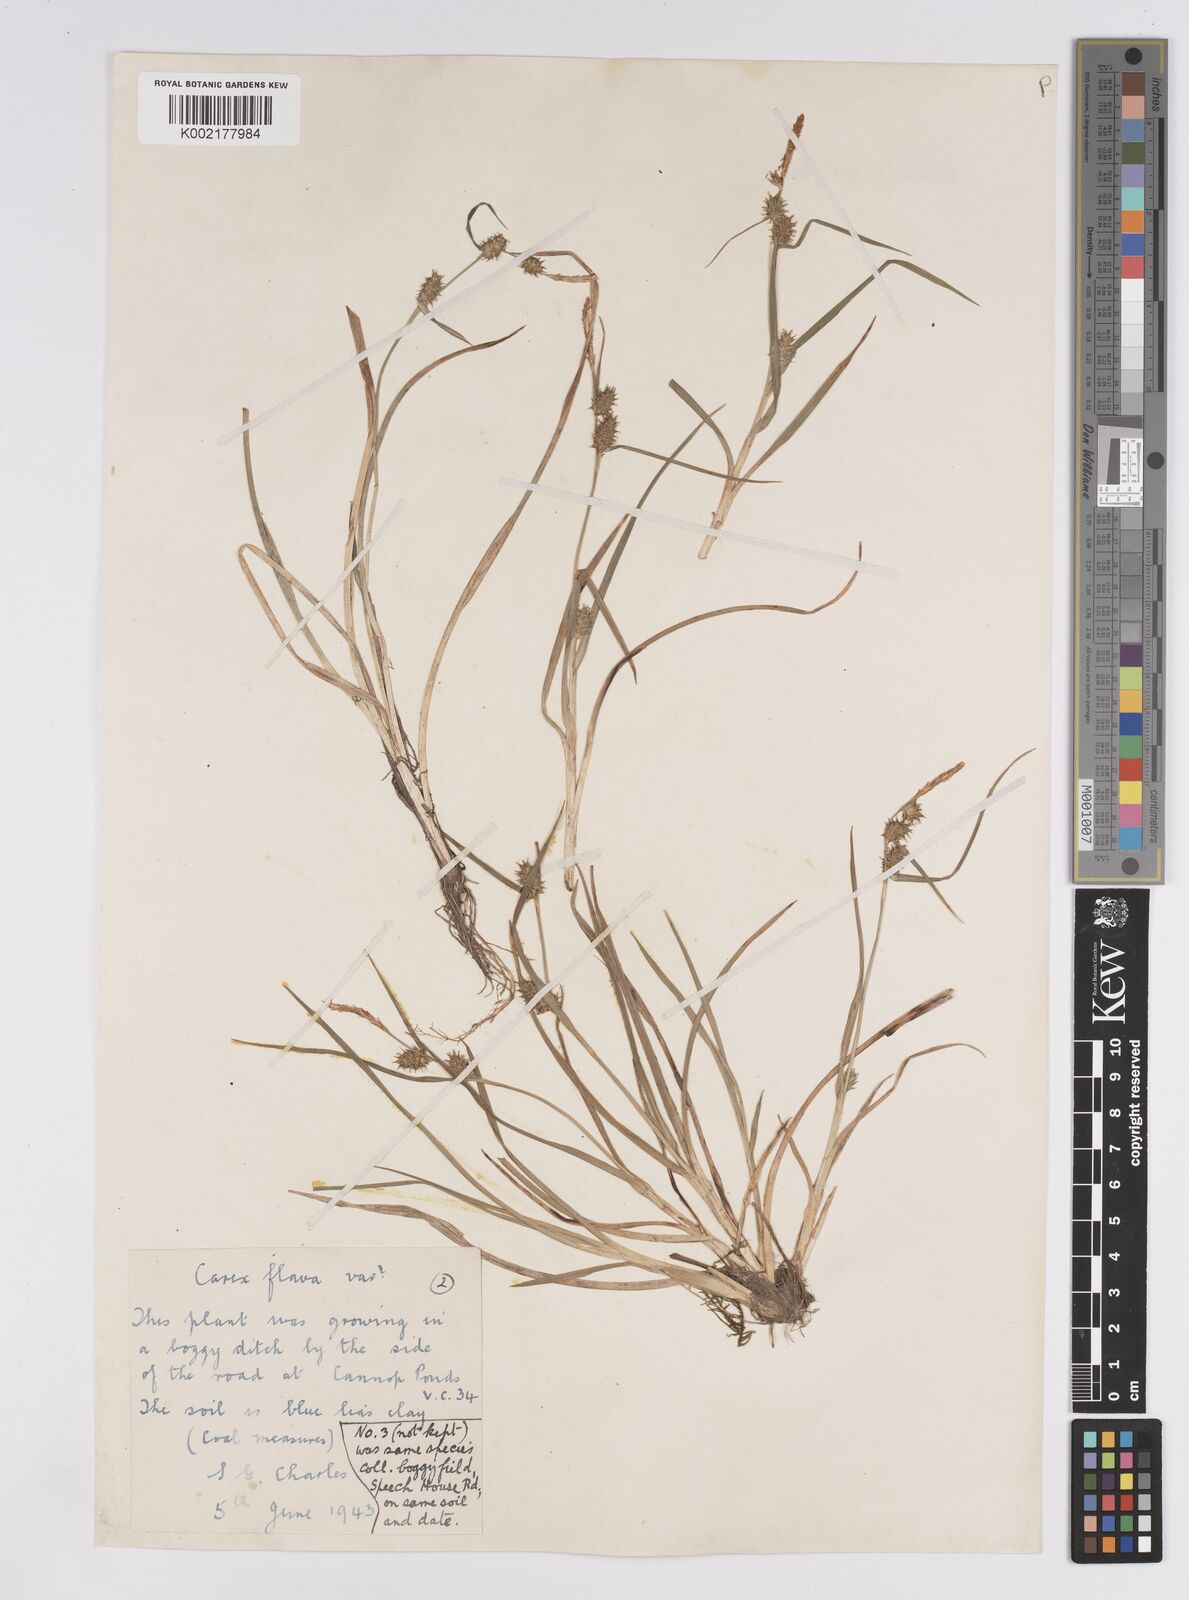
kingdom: Plantae
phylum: Tracheophyta
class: Liliopsida
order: Poales
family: Cyperaceae
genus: Carex
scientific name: Carex demissa
